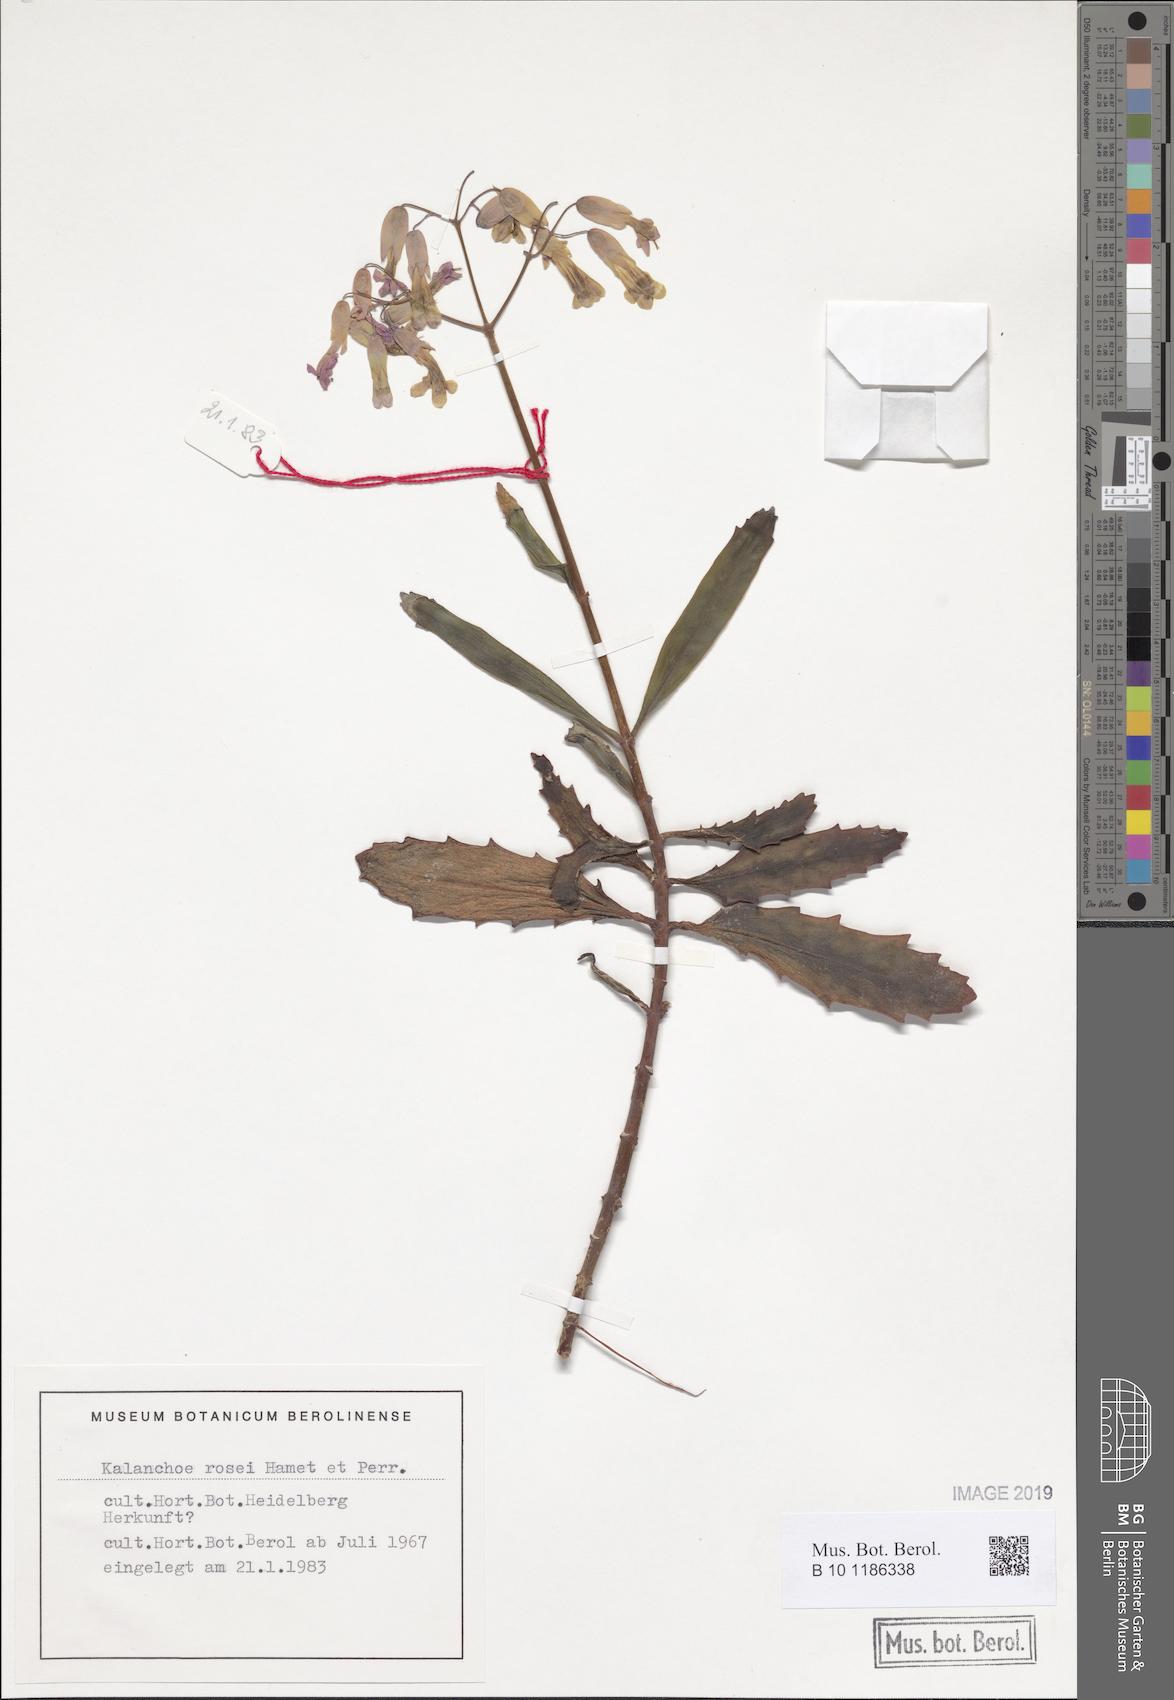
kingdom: Plantae
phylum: Tracheophyta
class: Magnoliopsida
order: Saxifragales
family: Crassulaceae
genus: Kalanchoe
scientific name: Kalanchoe rosei
